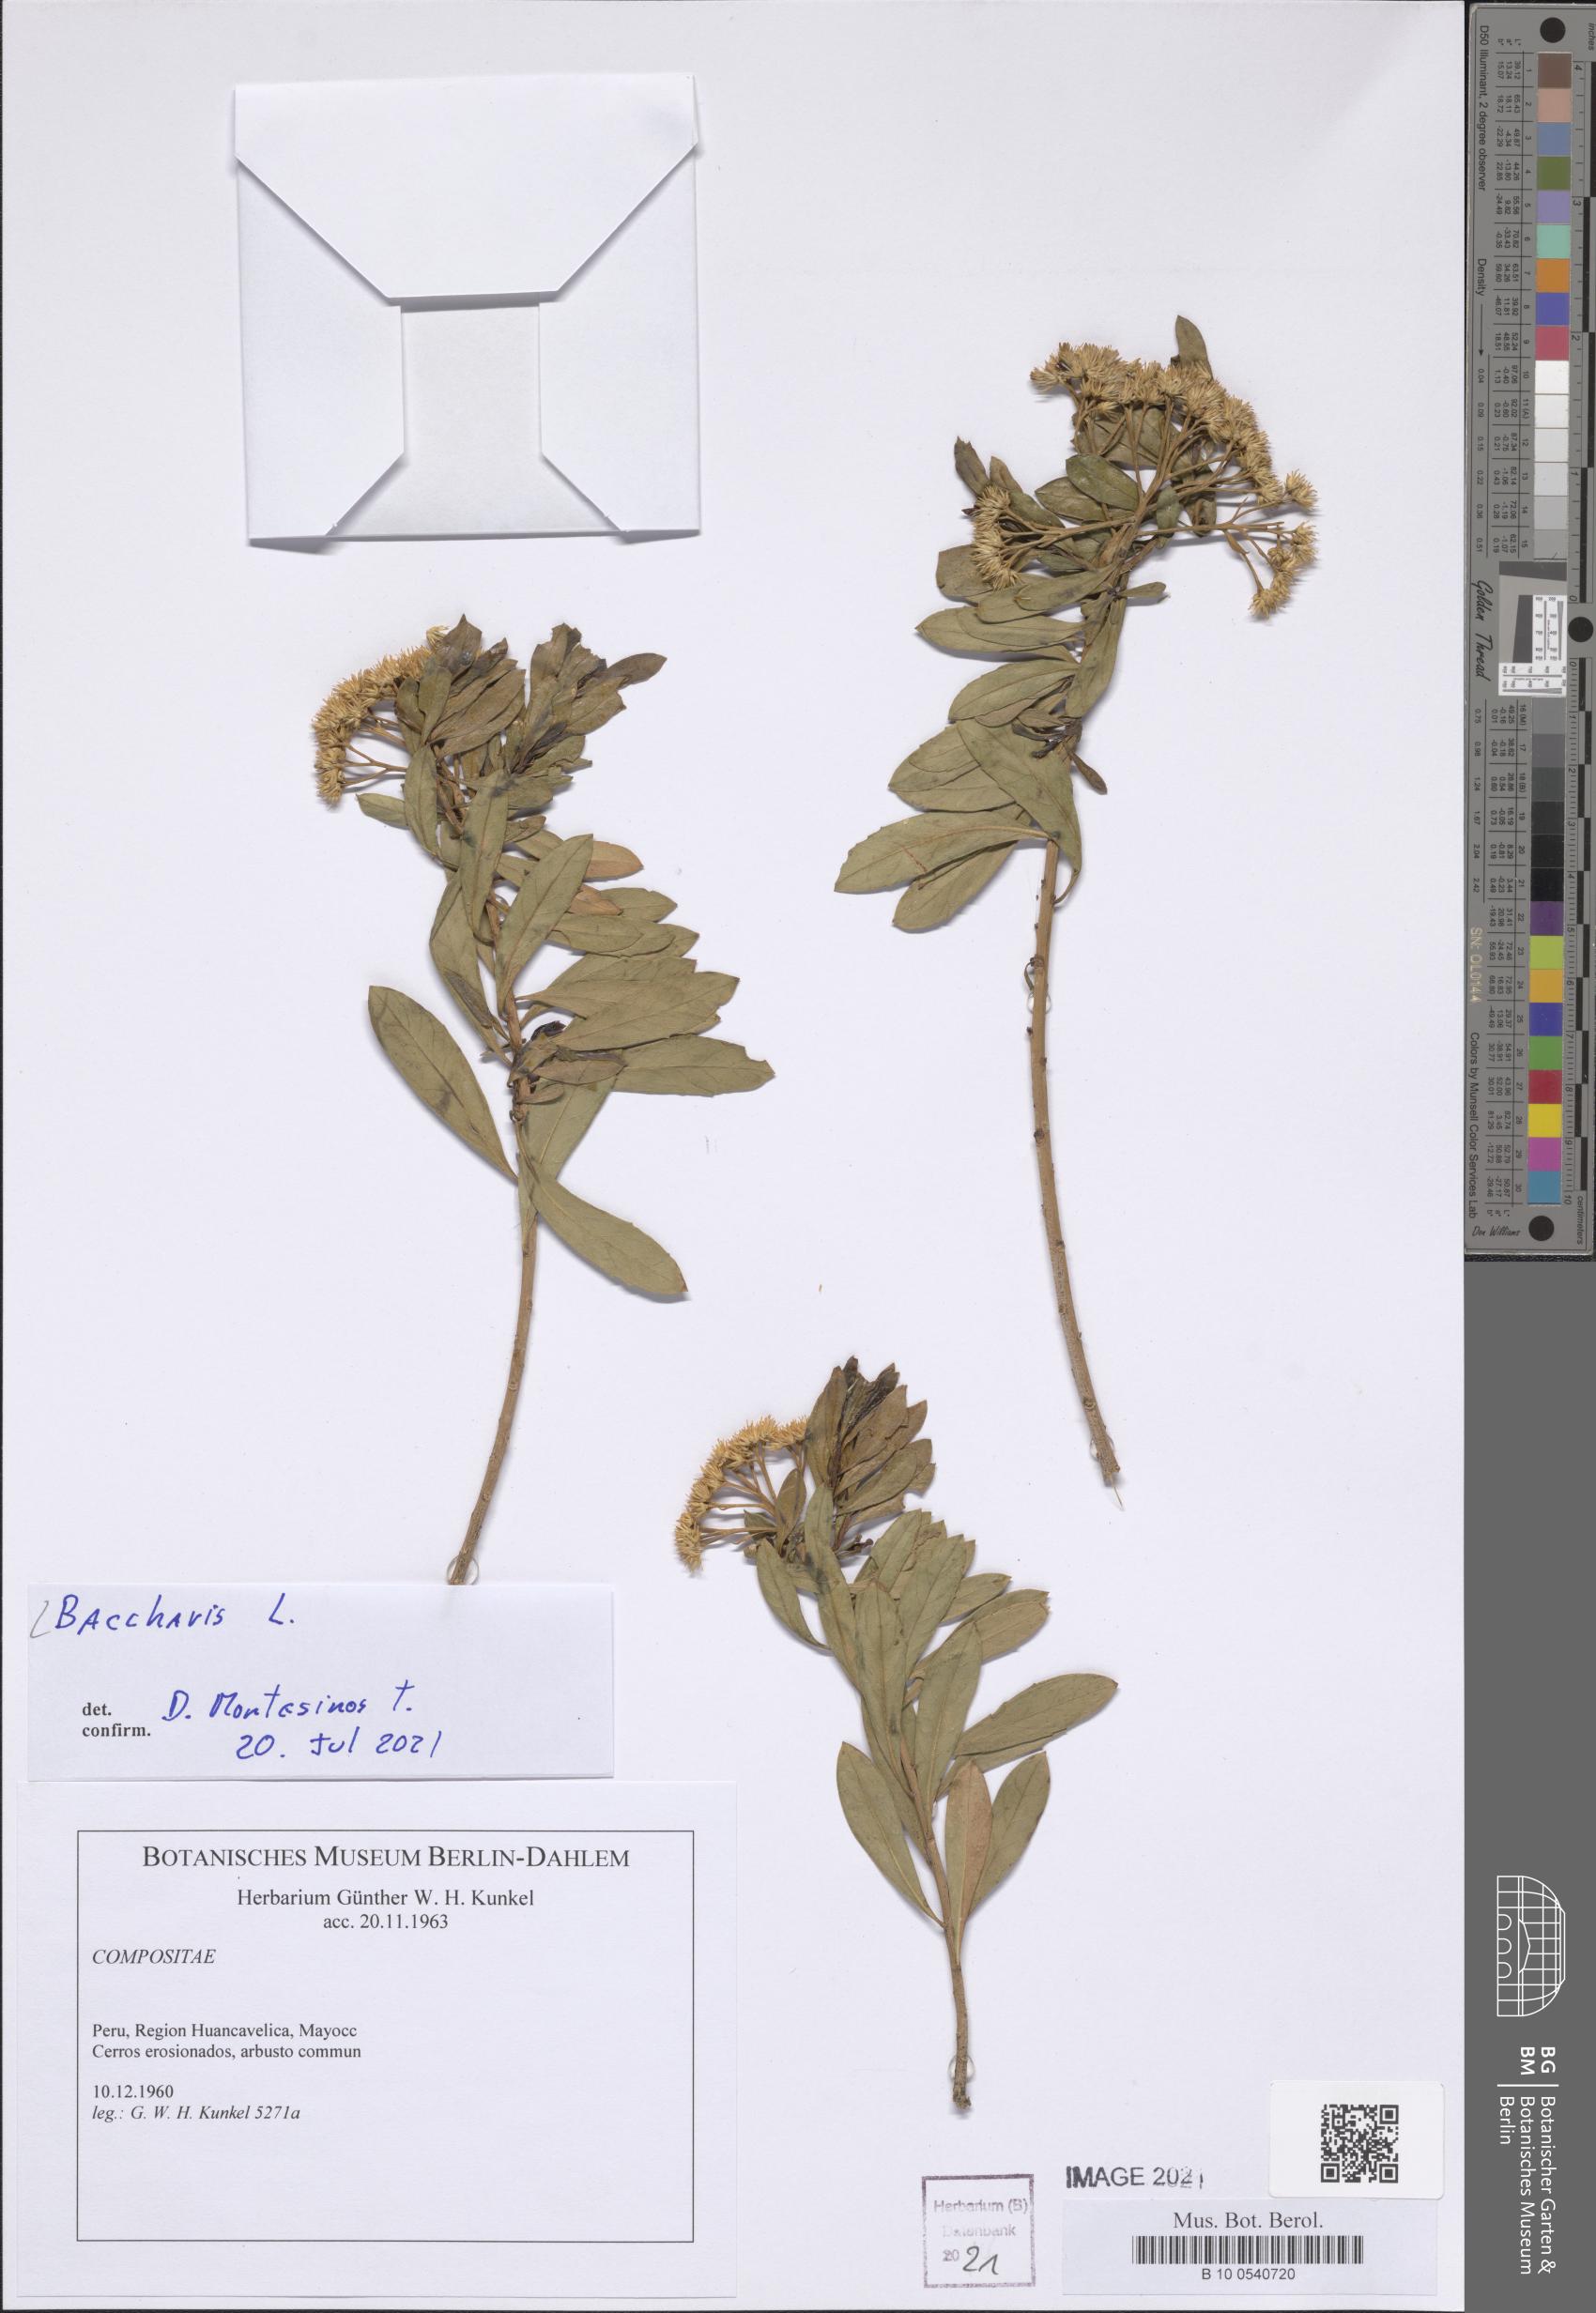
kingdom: Plantae
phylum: Tracheophyta
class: Magnoliopsida
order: Asterales
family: Asteraceae
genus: Baccharis
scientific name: Baccharis
